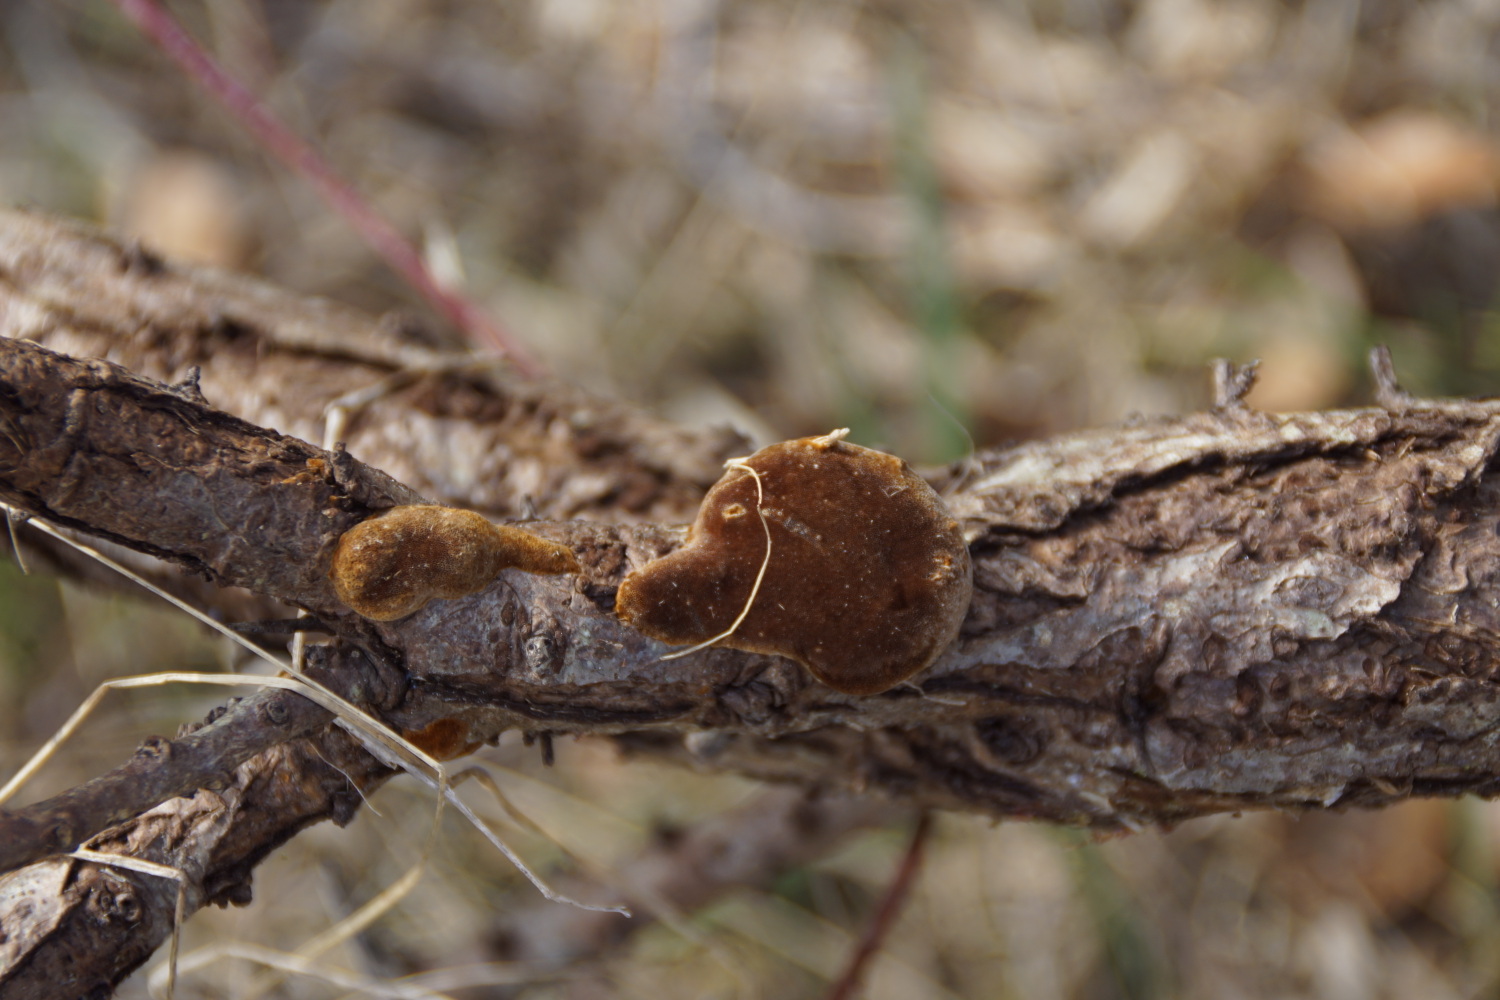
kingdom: Fungi
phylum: Basidiomycota
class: Agaricomycetes
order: Hymenochaetales
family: Hymenochaetaceae
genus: Fomitiporia
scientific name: Fomitiporia hippophaeicola
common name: havtorn-ildporesvamp
